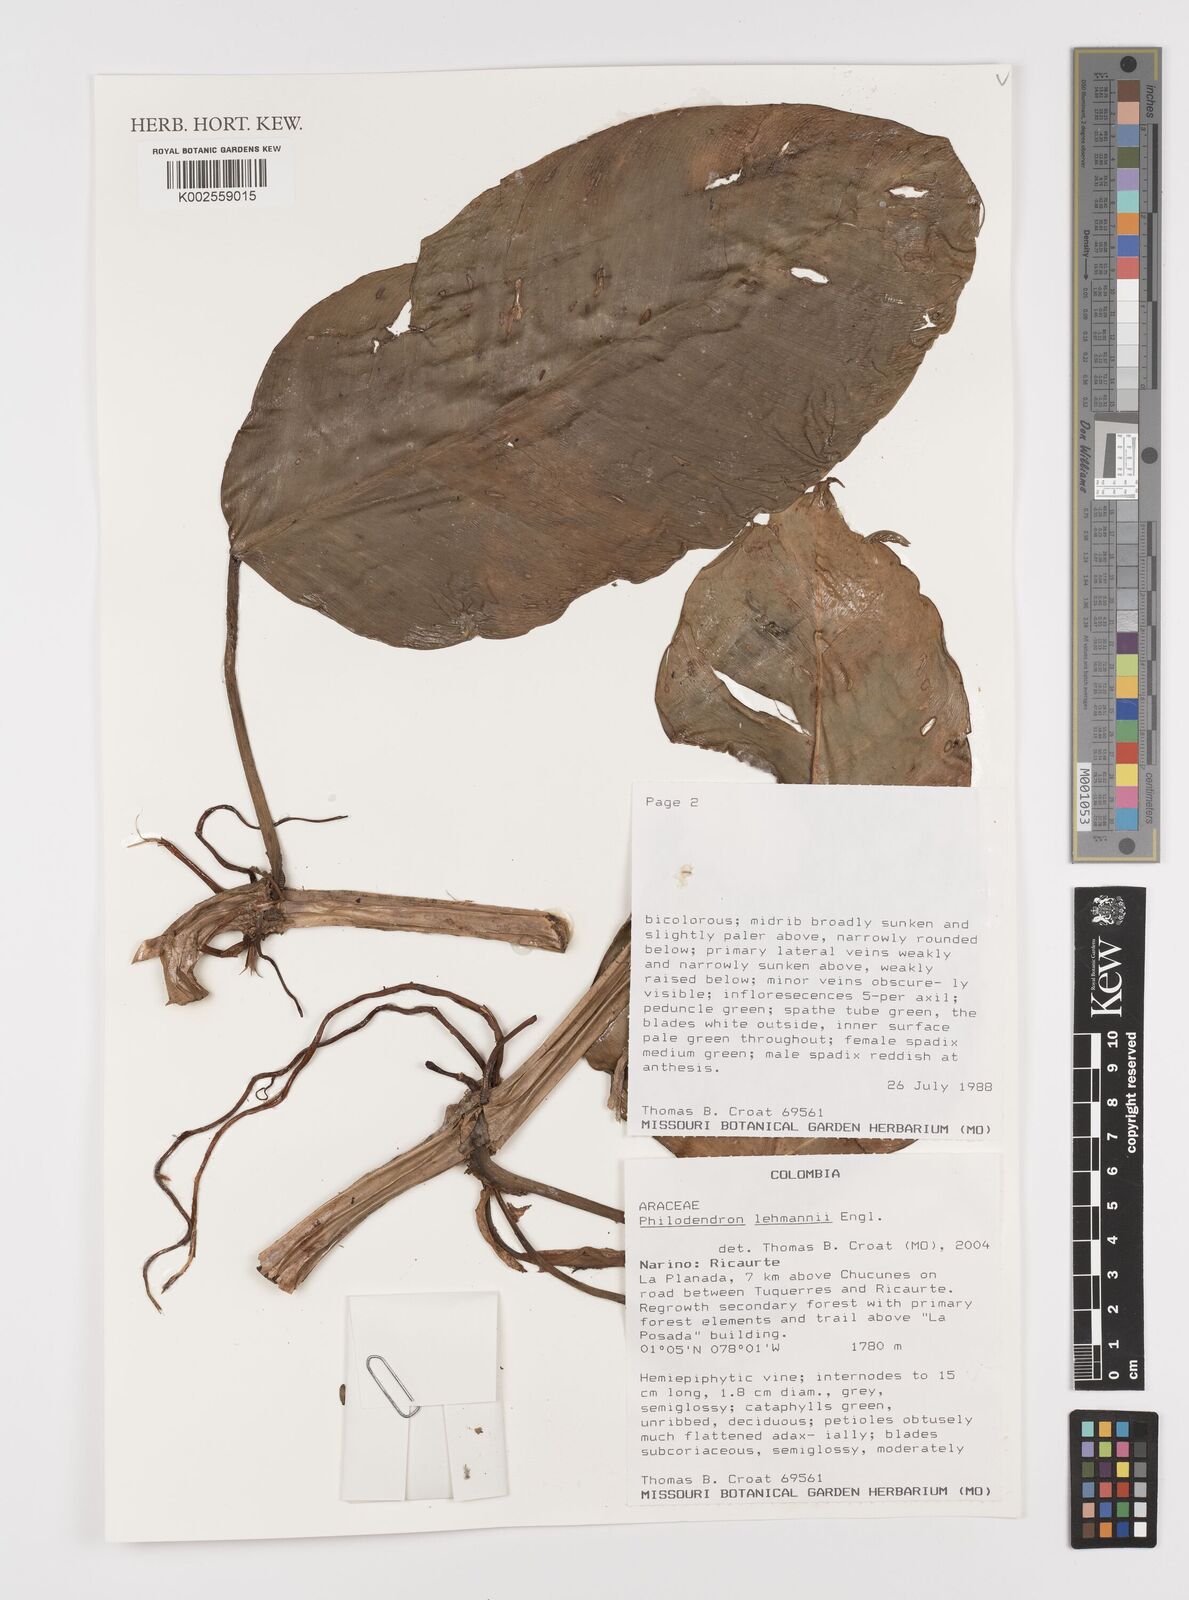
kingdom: Plantae
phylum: Tracheophyta
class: Liliopsida
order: Alismatales
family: Araceae
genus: Philodendron
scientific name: Philodendron lehmannii
